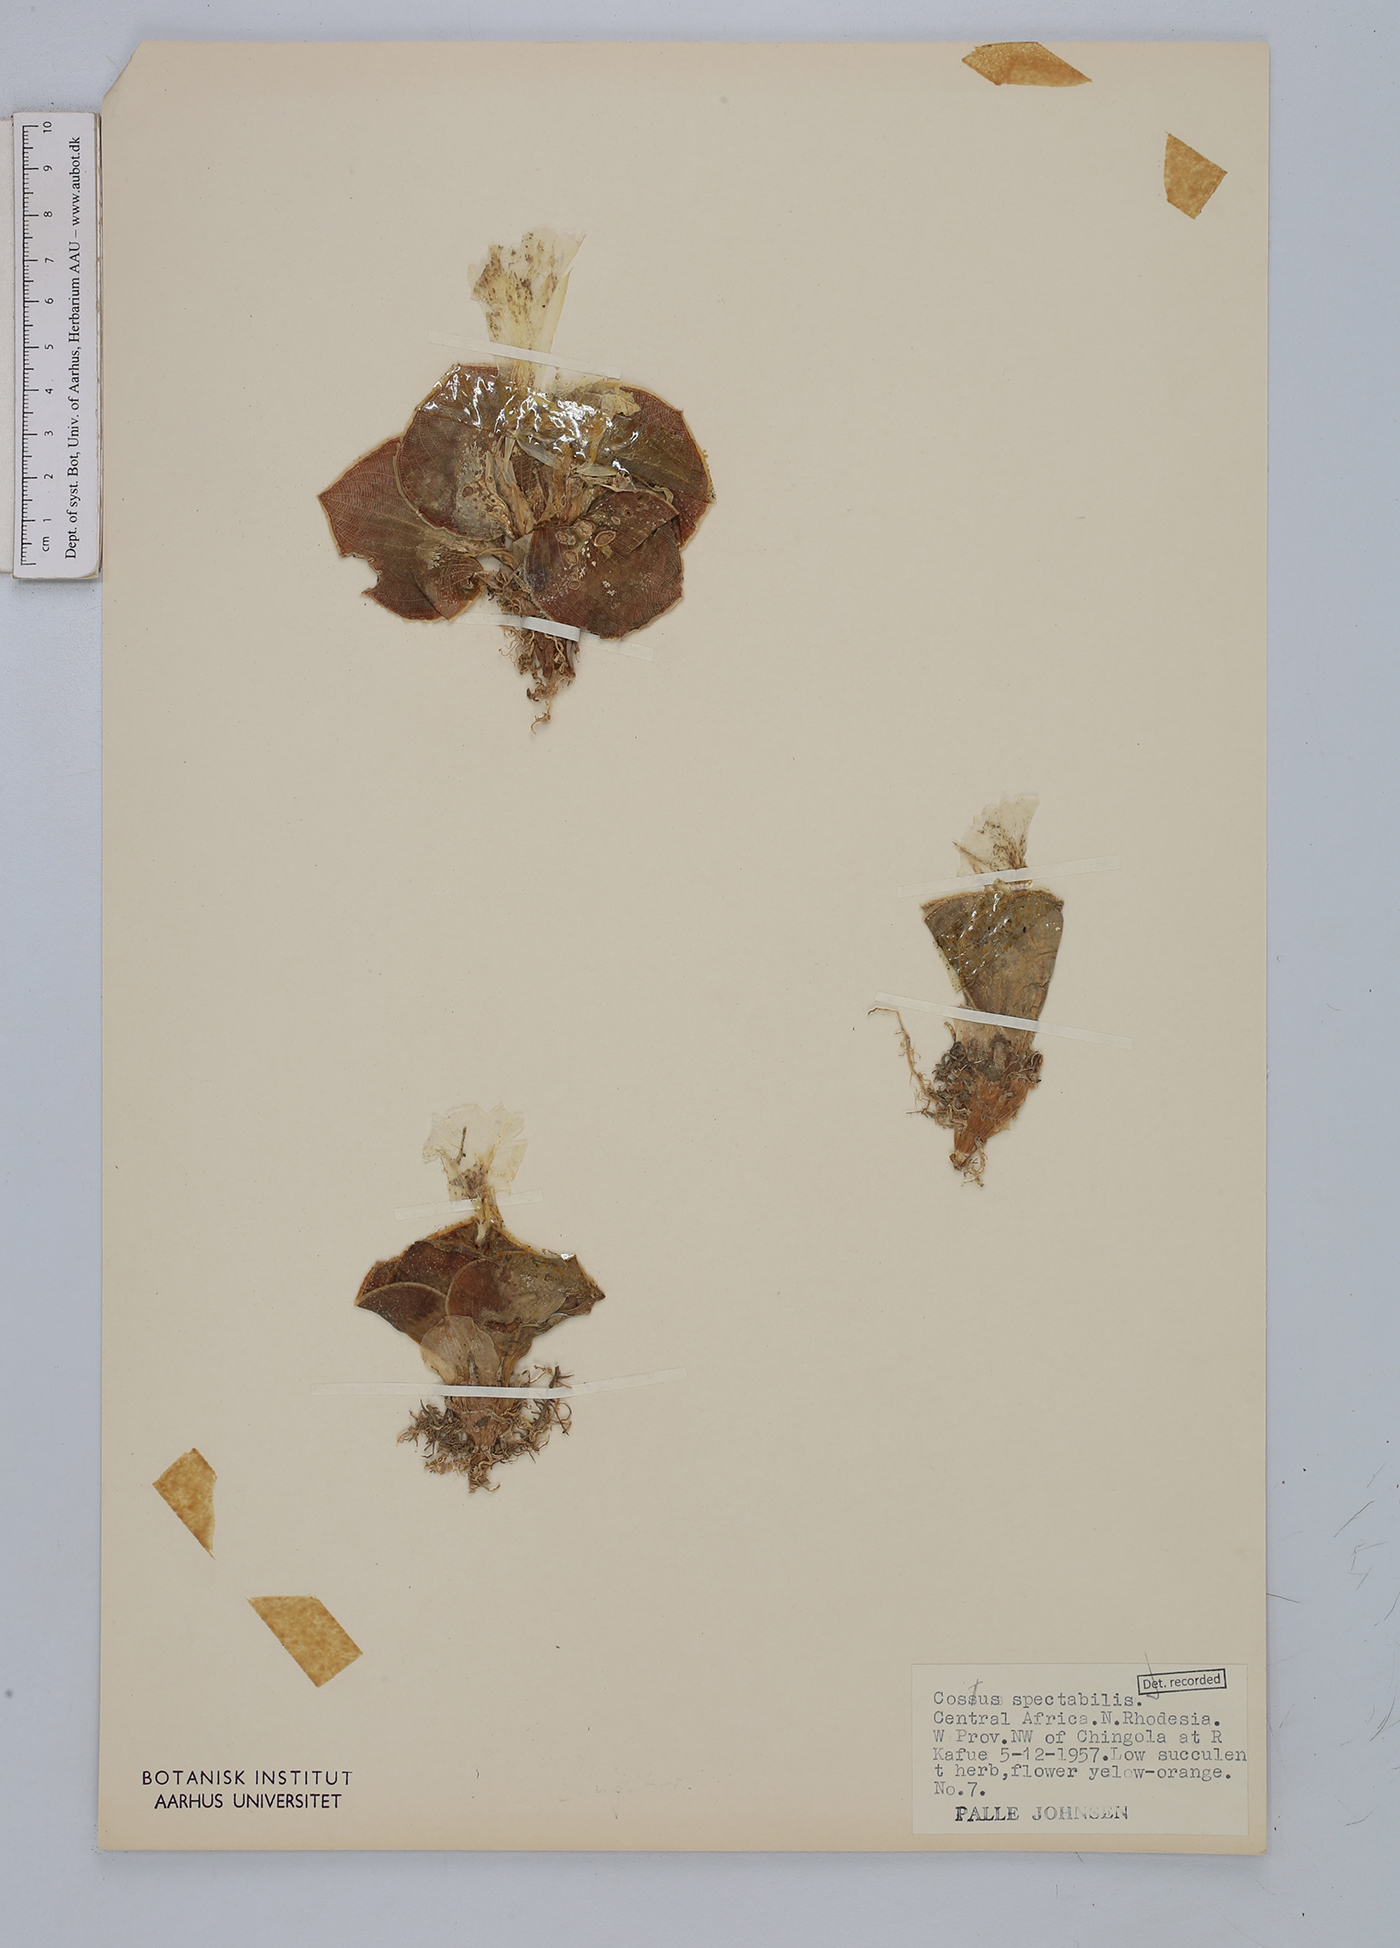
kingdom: Plantae
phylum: Tracheophyta
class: Liliopsida
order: Zingiberales
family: Costaceae
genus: Costus
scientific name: Costus spectabilis
